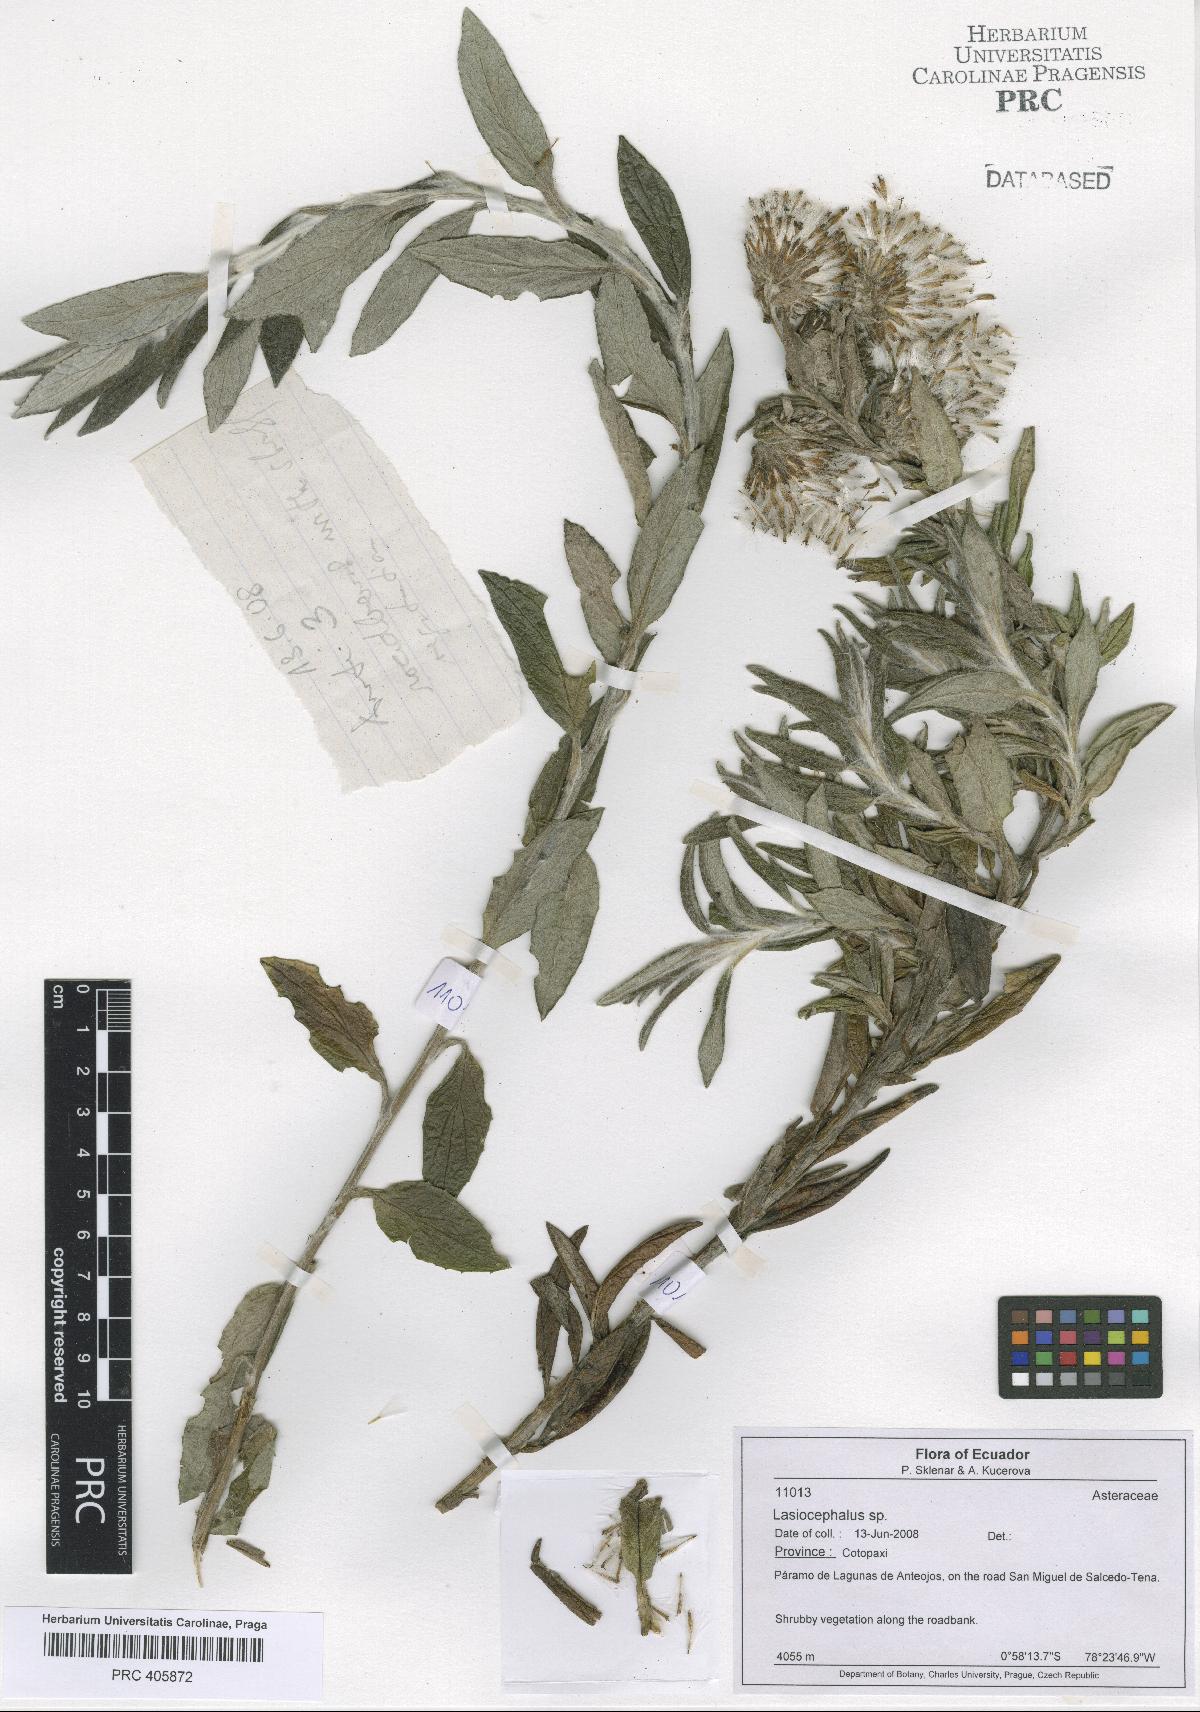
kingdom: Plantae
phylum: Tracheophyta
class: Magnoliopsida
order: Asterales
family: Asteraceae
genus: Lasiocephalus
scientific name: Lasiocephalus
